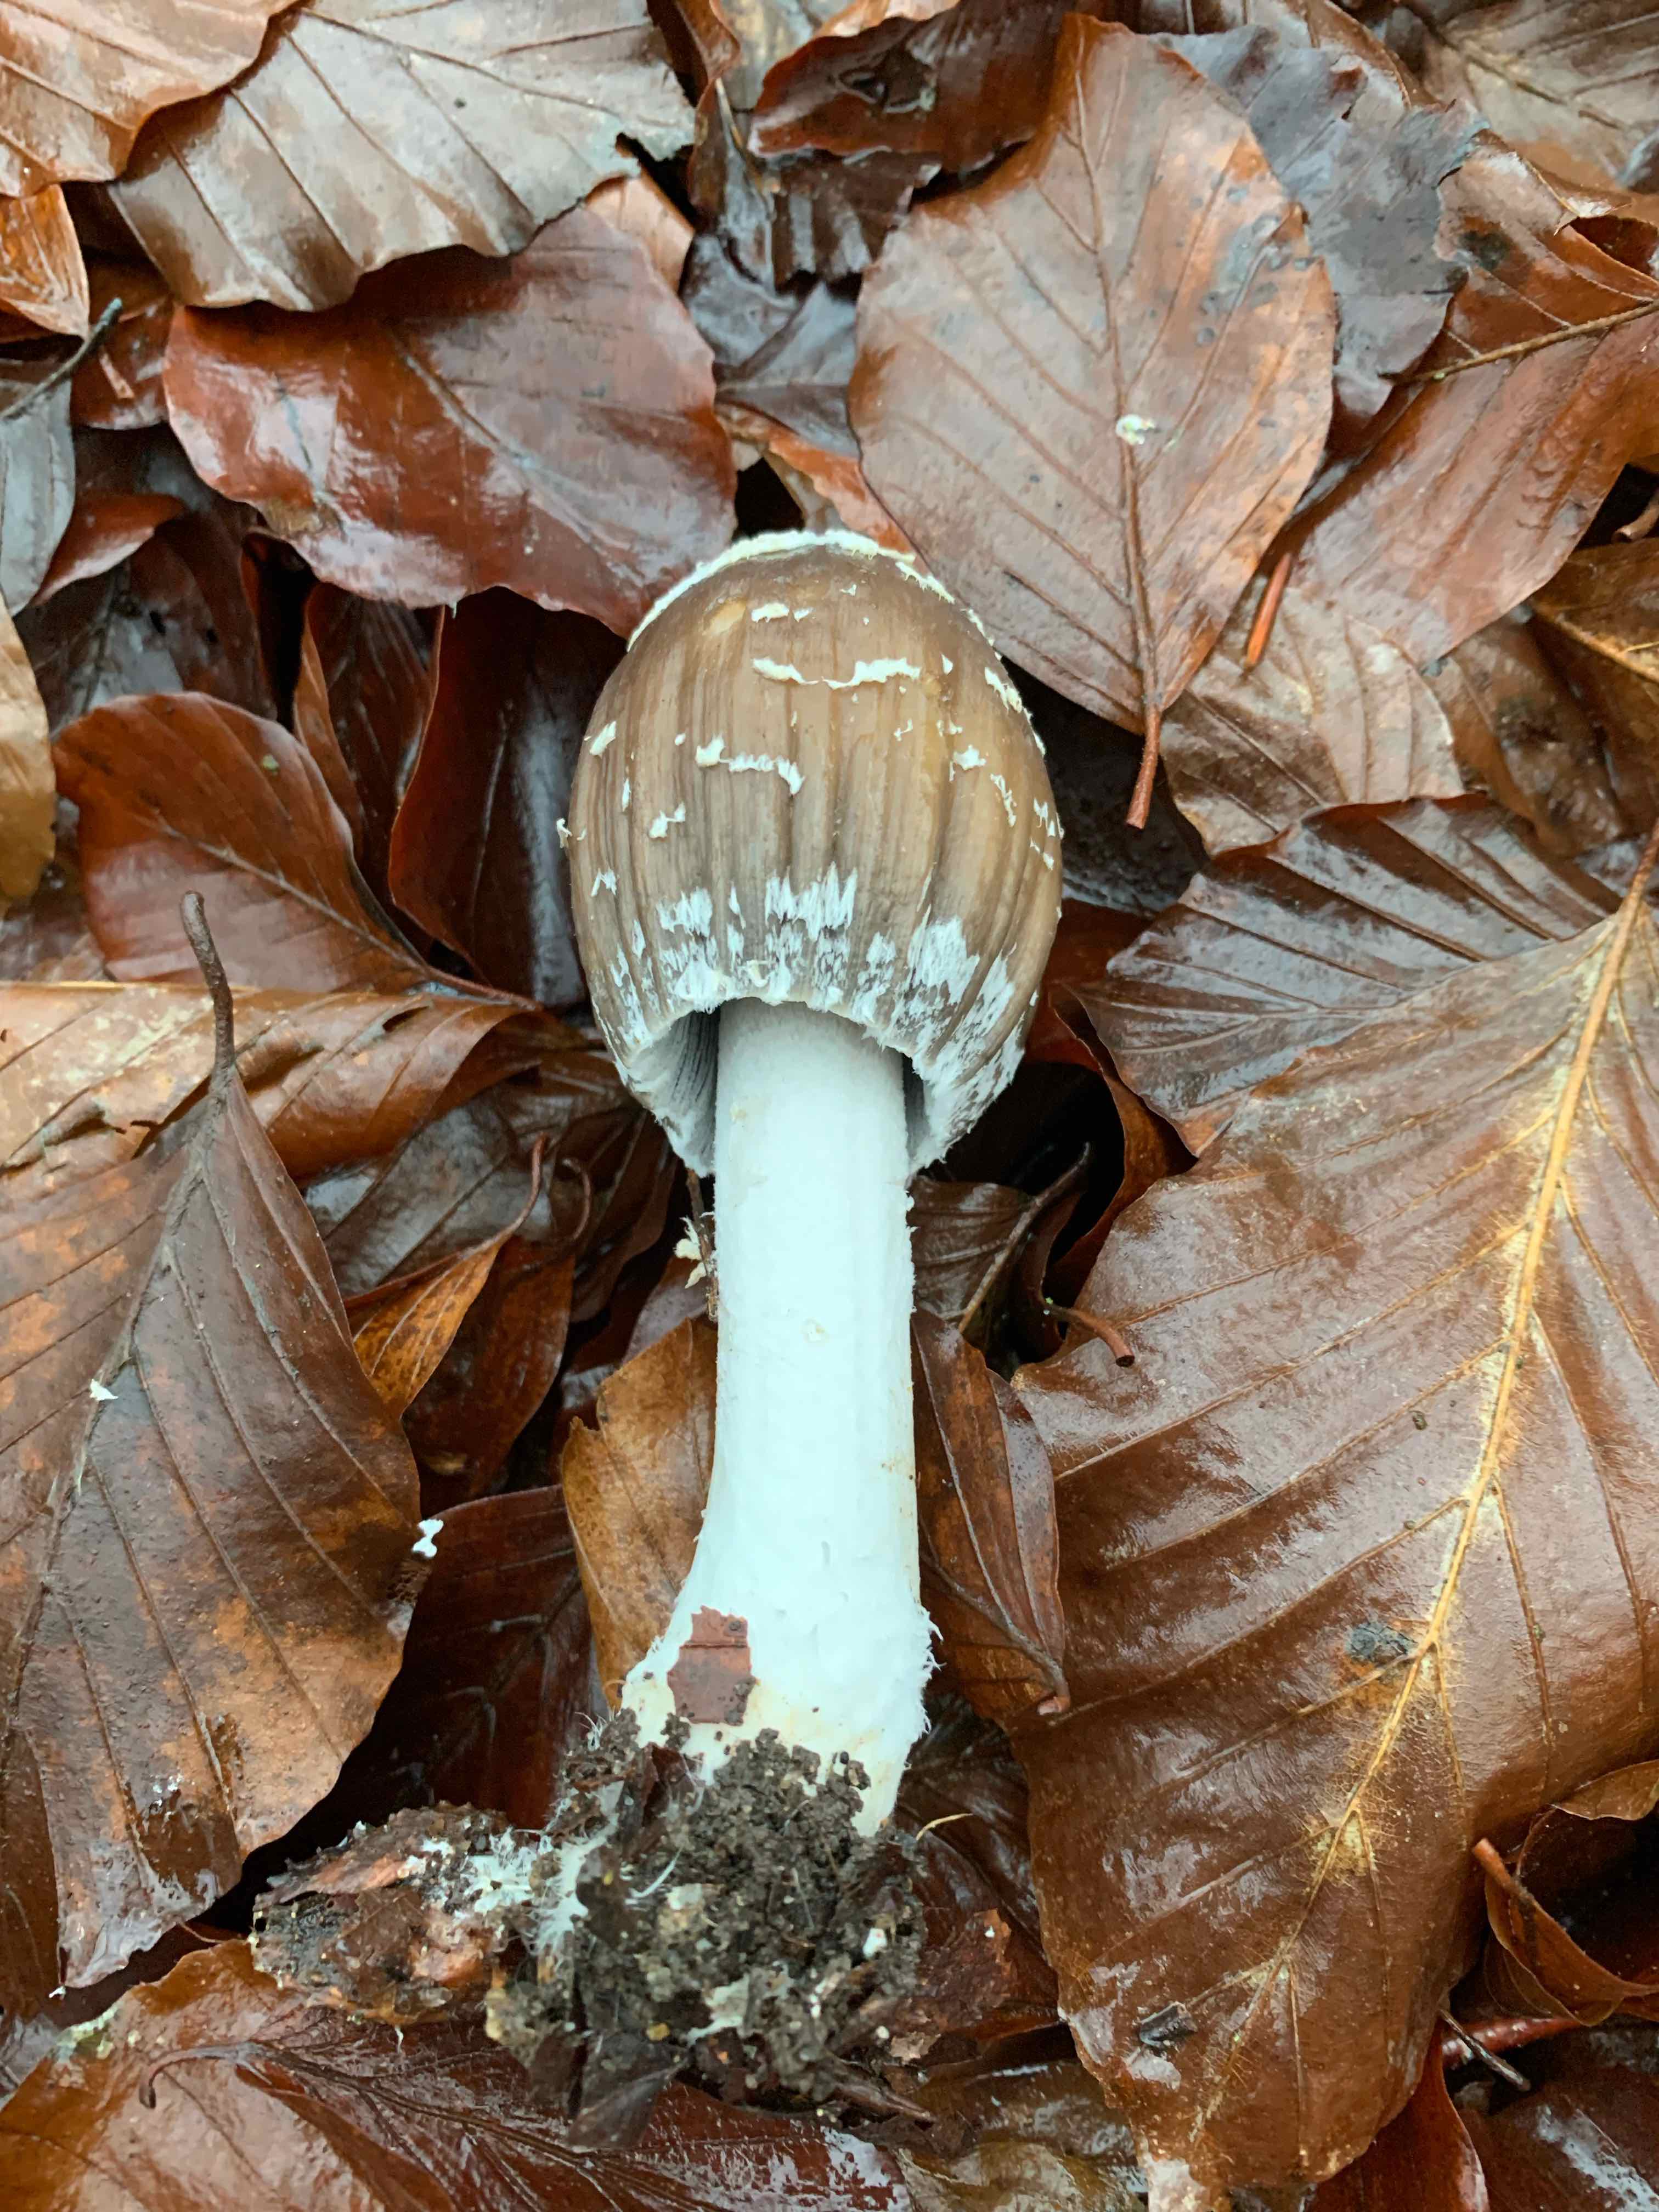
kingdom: Fungi
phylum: Basidiomycota
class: Agaricomycetes
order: Agaricales
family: Psathyrellaceae
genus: Coprinopsis
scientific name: Coprinopsis picacea
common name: skade-blækhat
